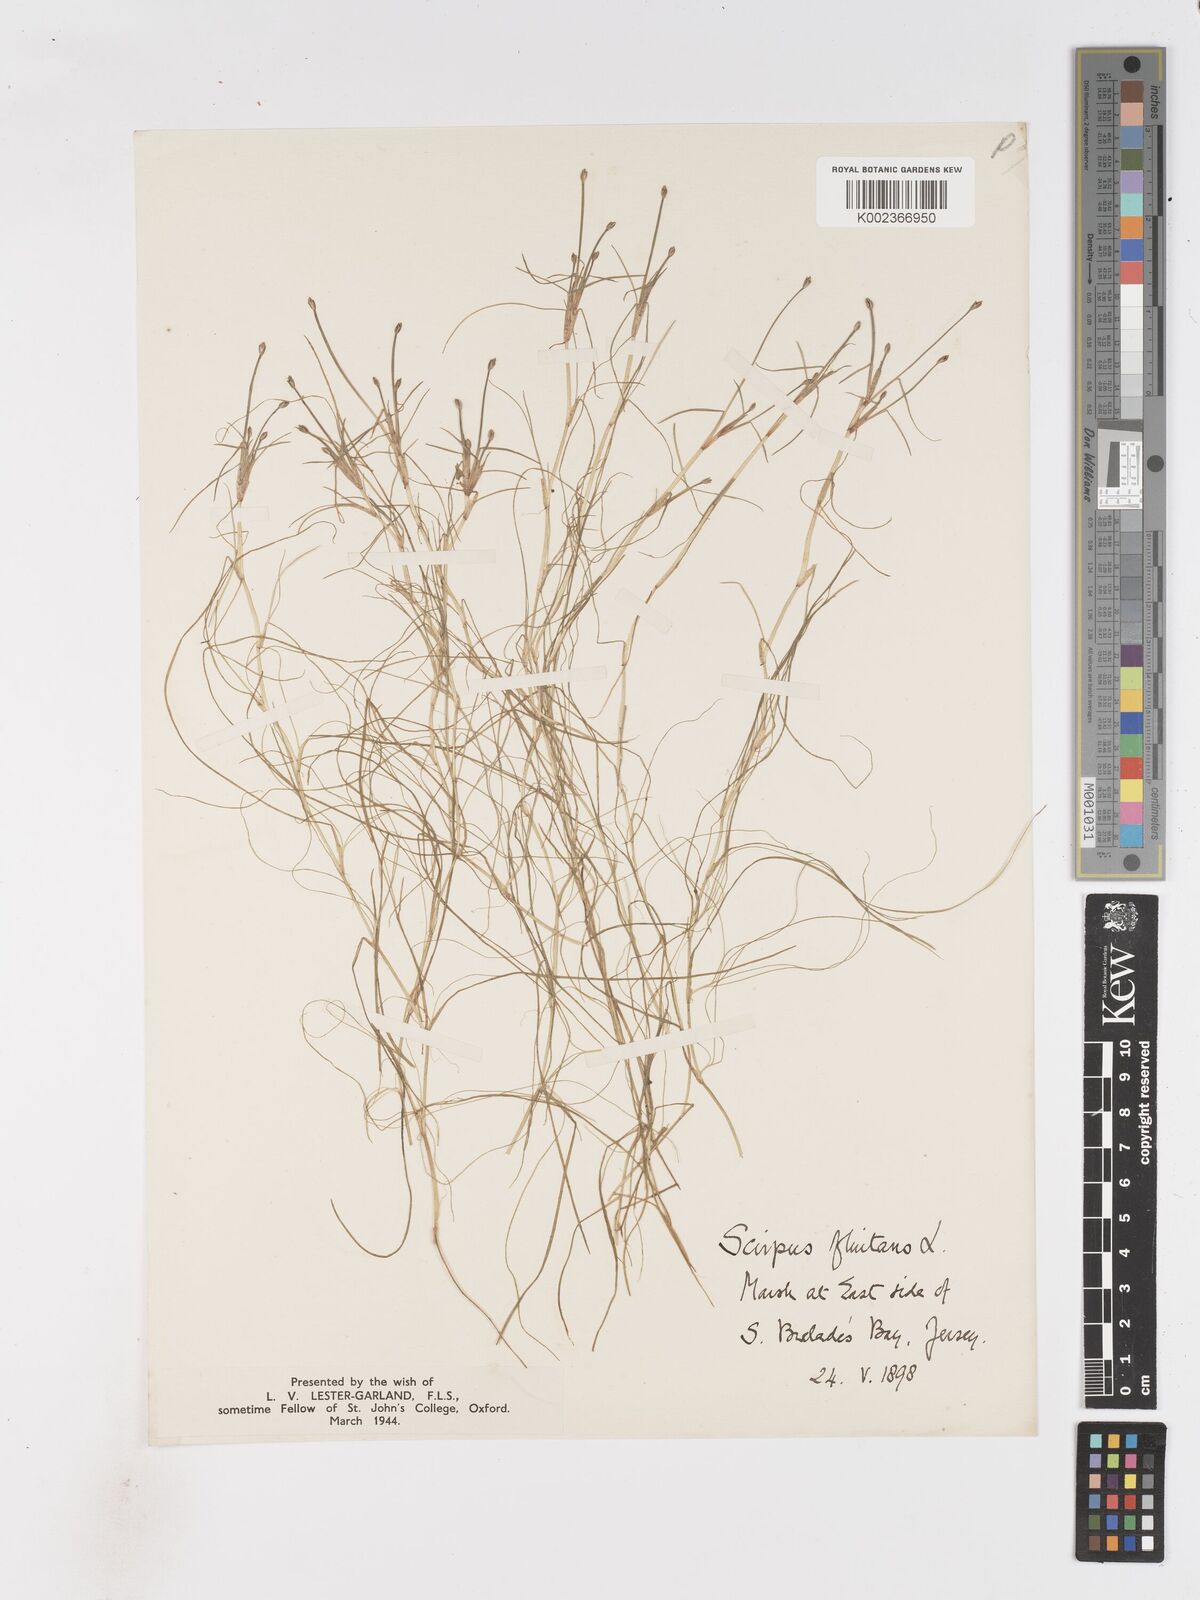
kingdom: Plantae
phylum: Tracheophyta
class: Liliopsida
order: Poales
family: Cyperaceae
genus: Isolepis
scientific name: Isolepis fluitans
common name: Floating club-rush
